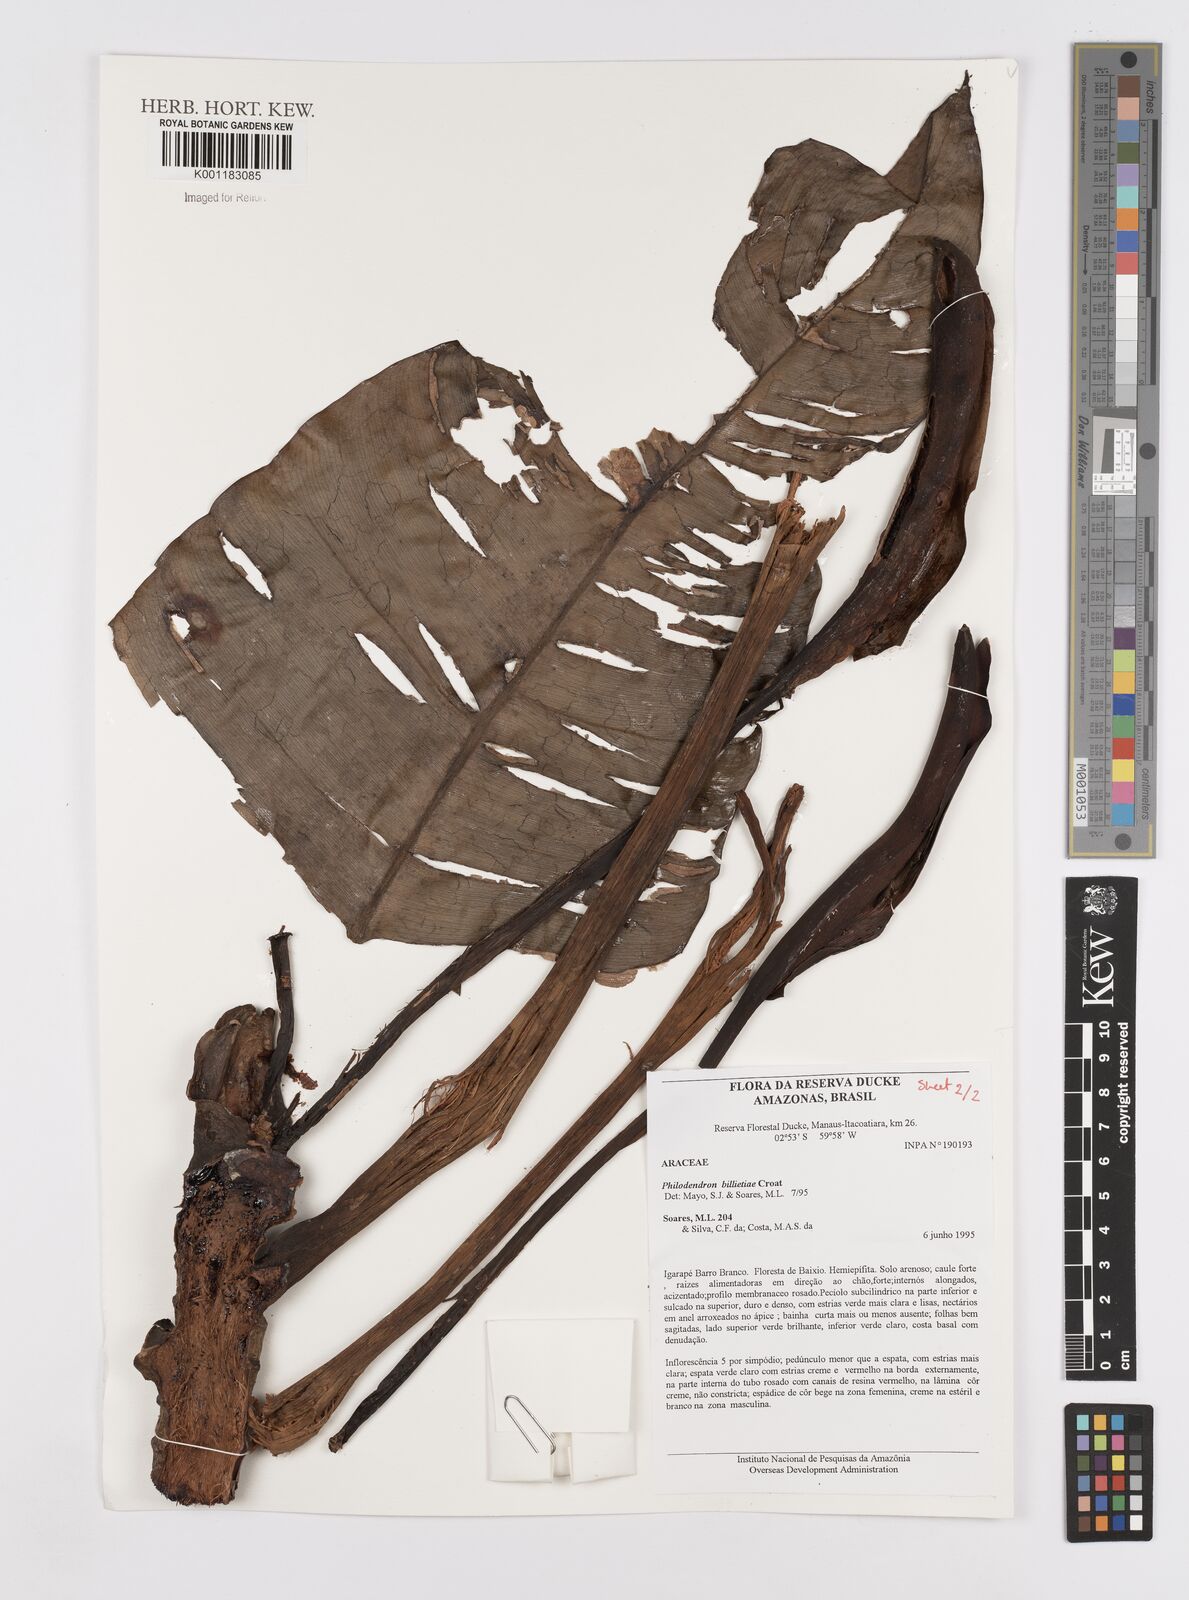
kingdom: Plantae
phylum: Tracheophyta
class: Liliopsida
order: Alismatales
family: Araceae
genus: Philodendron
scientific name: Philodendron billietiae
